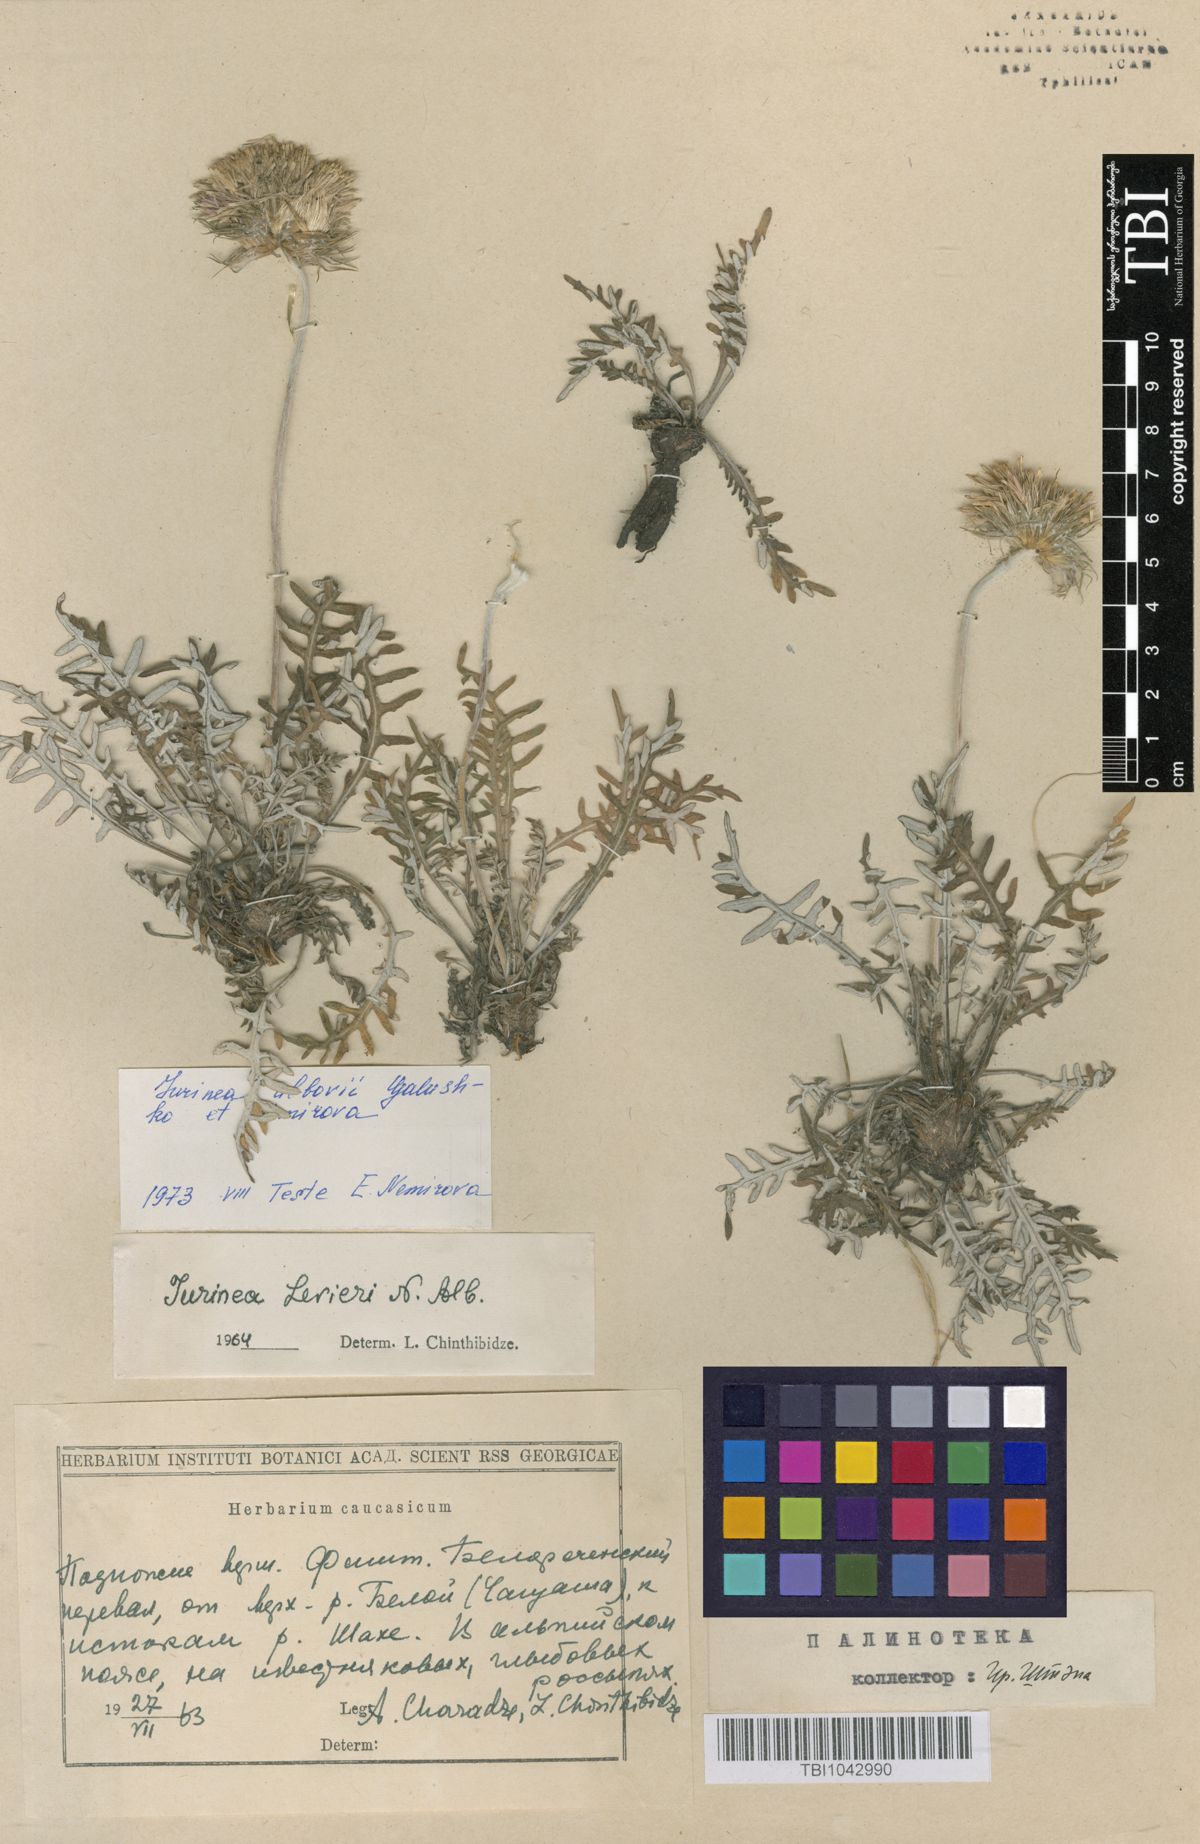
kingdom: Plantae
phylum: Tracheophyta
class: Magnoliopsida
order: Asterales
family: Asteraceae
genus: Jurinea
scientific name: Jurinea
